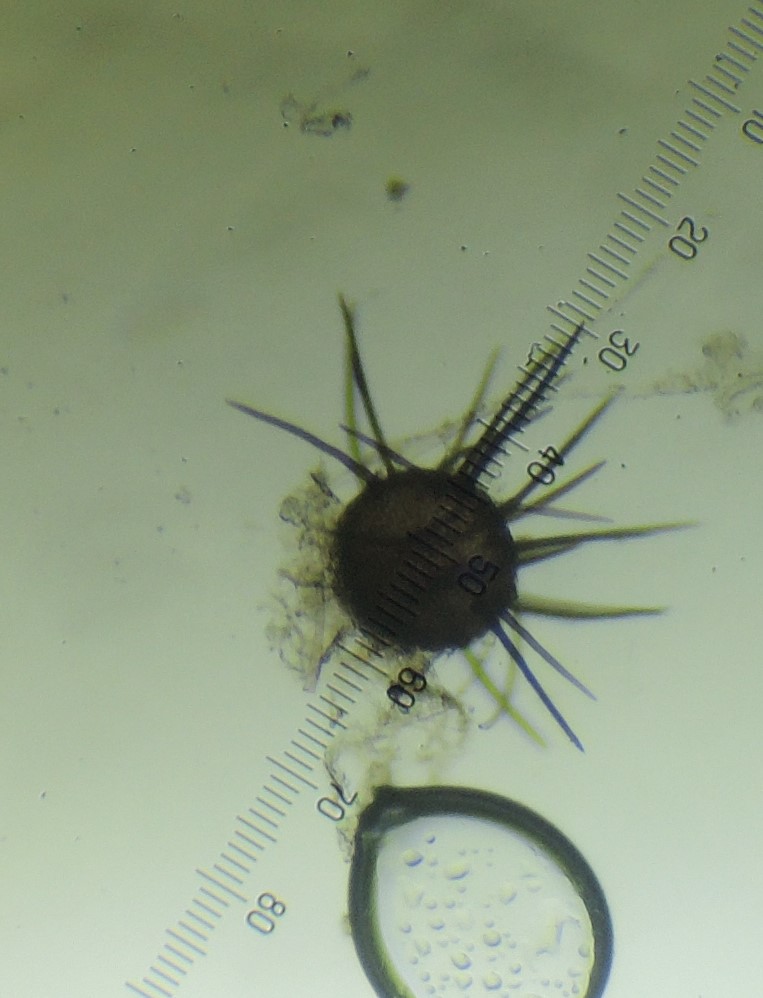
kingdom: Fungi
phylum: Ascomycota
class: Sordariomycetes
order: Hypocreales
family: Niessliaceae
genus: Niesslia
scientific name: Niesslia ilicifolia
